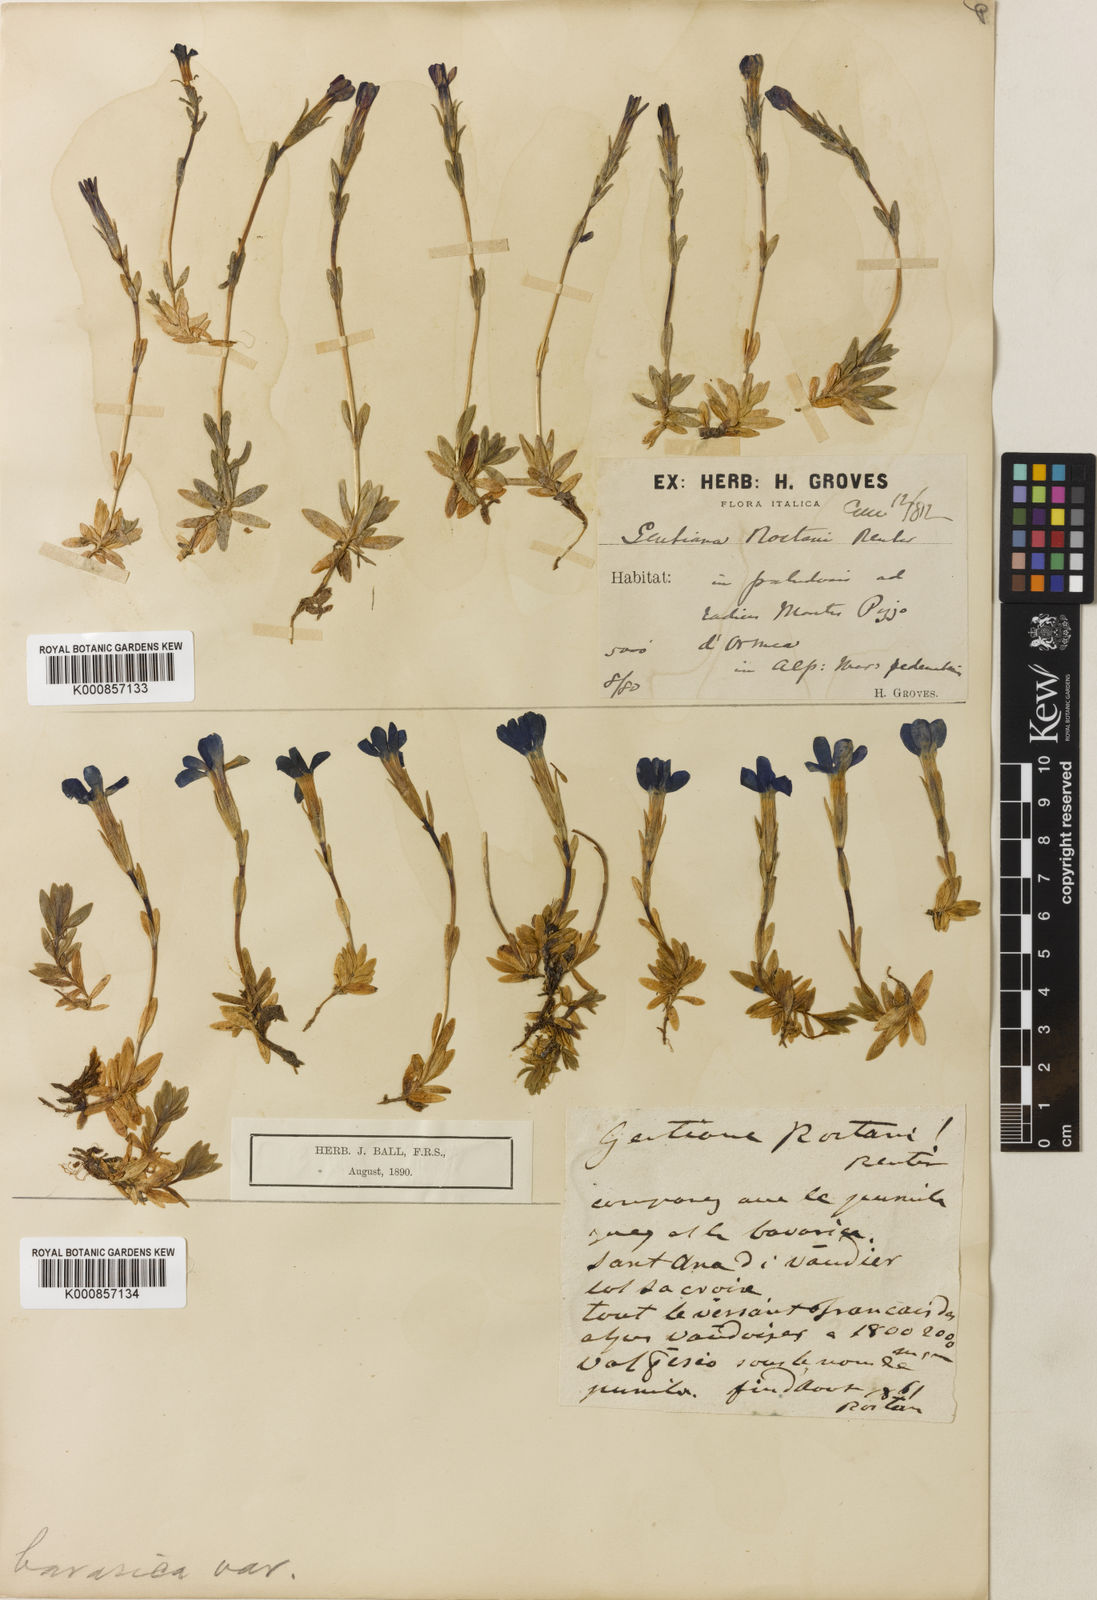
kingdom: Plantae
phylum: Tracheophyta
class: Magnoliopsida
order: Gentianales
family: Gentianaceae
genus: Gentiana
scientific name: Gentiana
